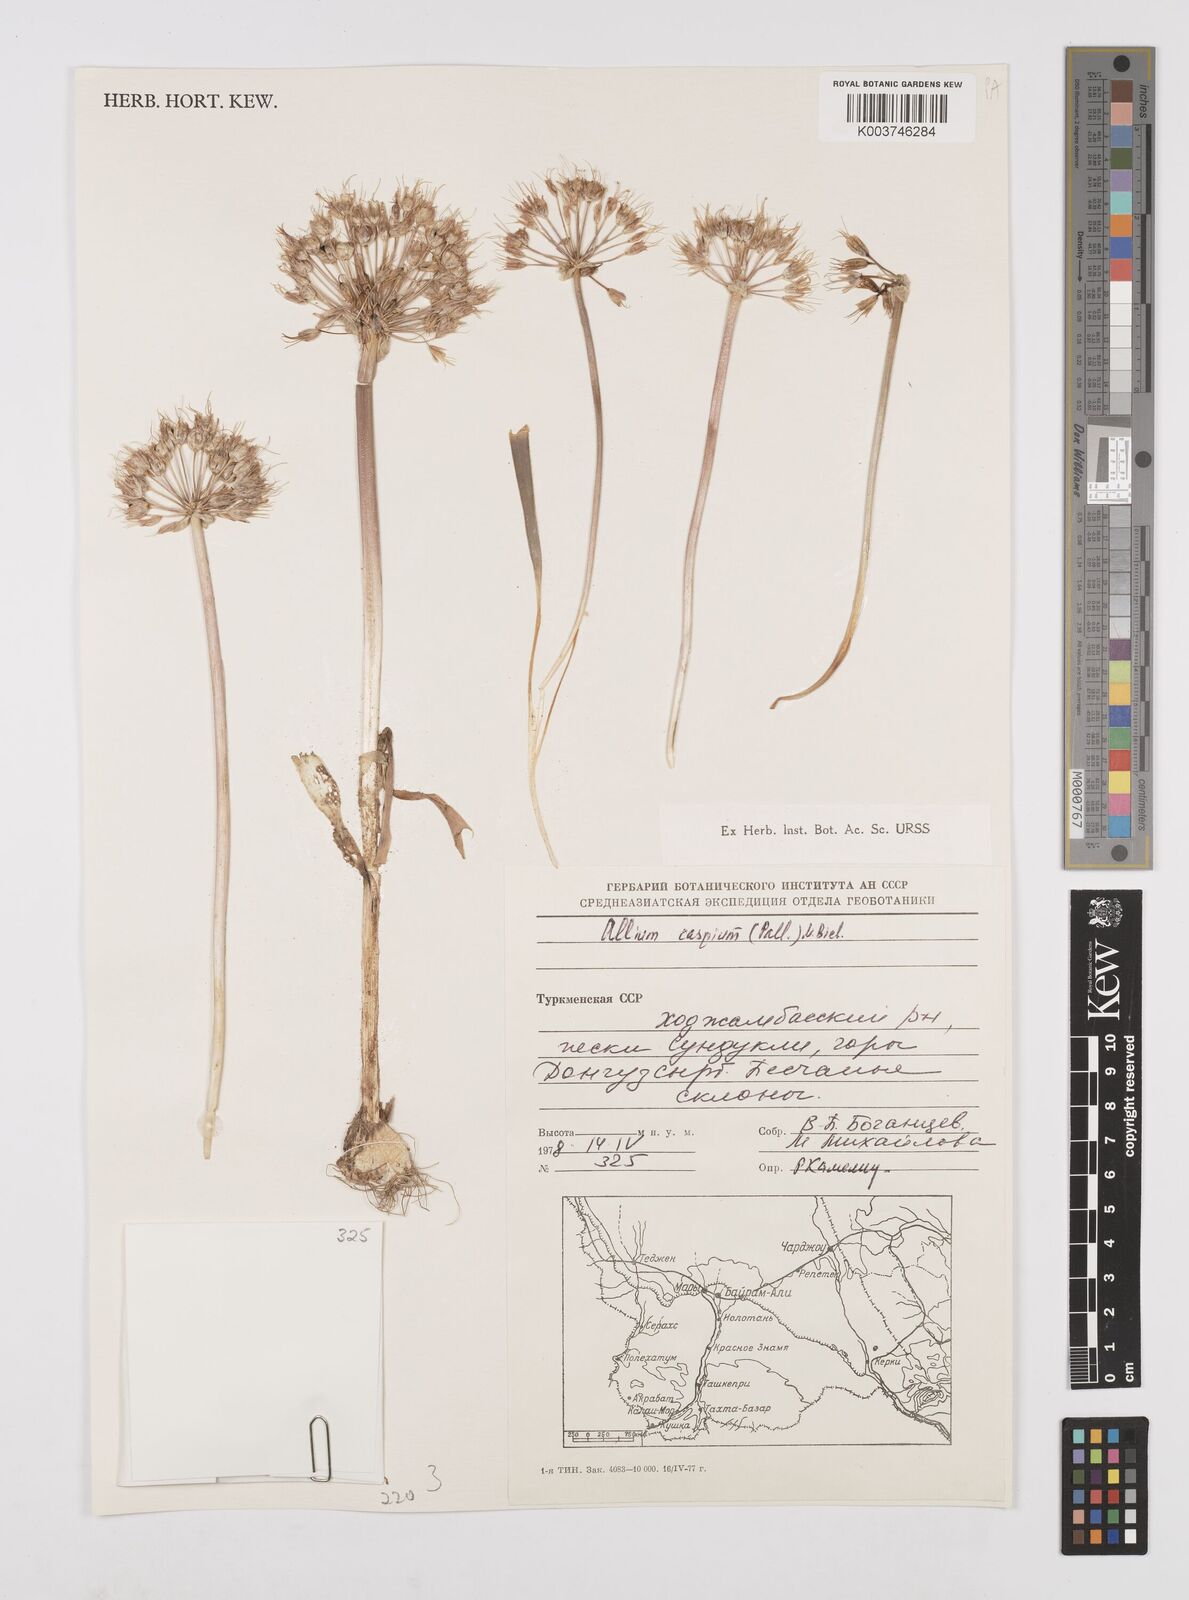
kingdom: Plantae
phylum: Tracheophyta
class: Liliopsida
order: Asparagales
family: Amaryllidaceae
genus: Allium
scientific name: Allium caspium
